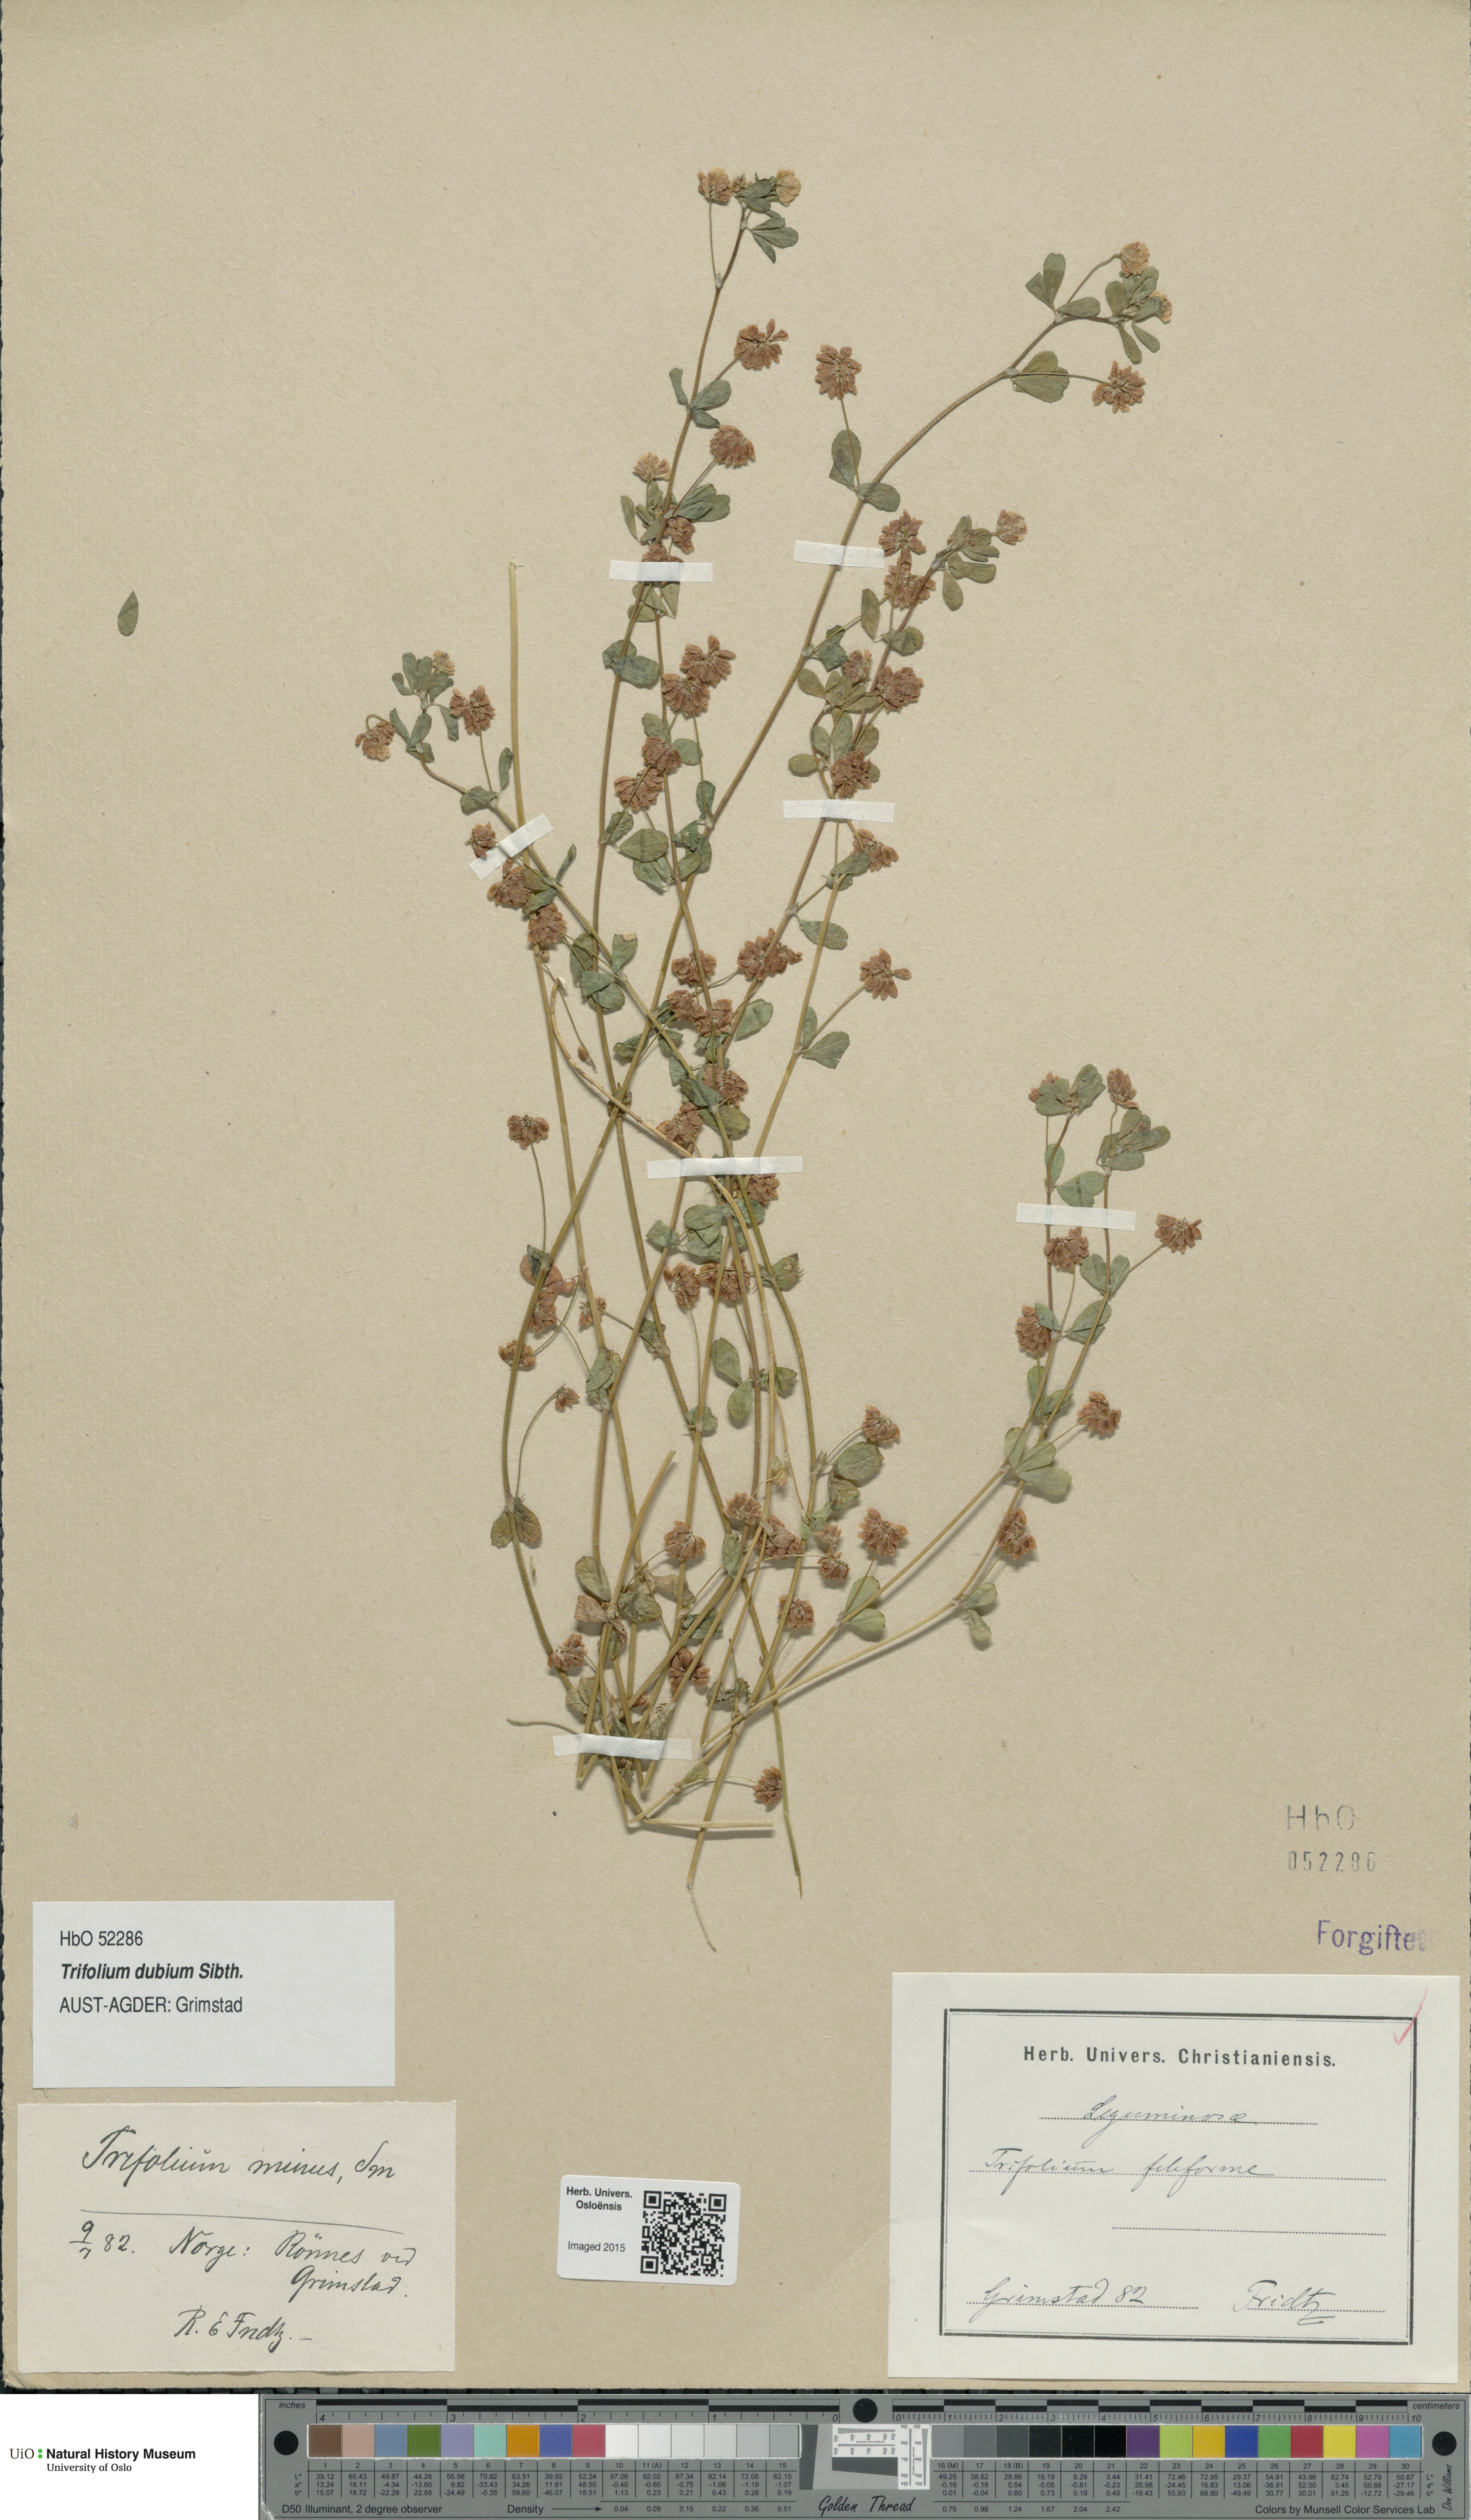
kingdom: Plantae
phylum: Tracheophyta
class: Magnoliopsida
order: Fabales
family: Fabaceae
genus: Trifolium
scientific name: Trifolium dubium
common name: Suckling clover
